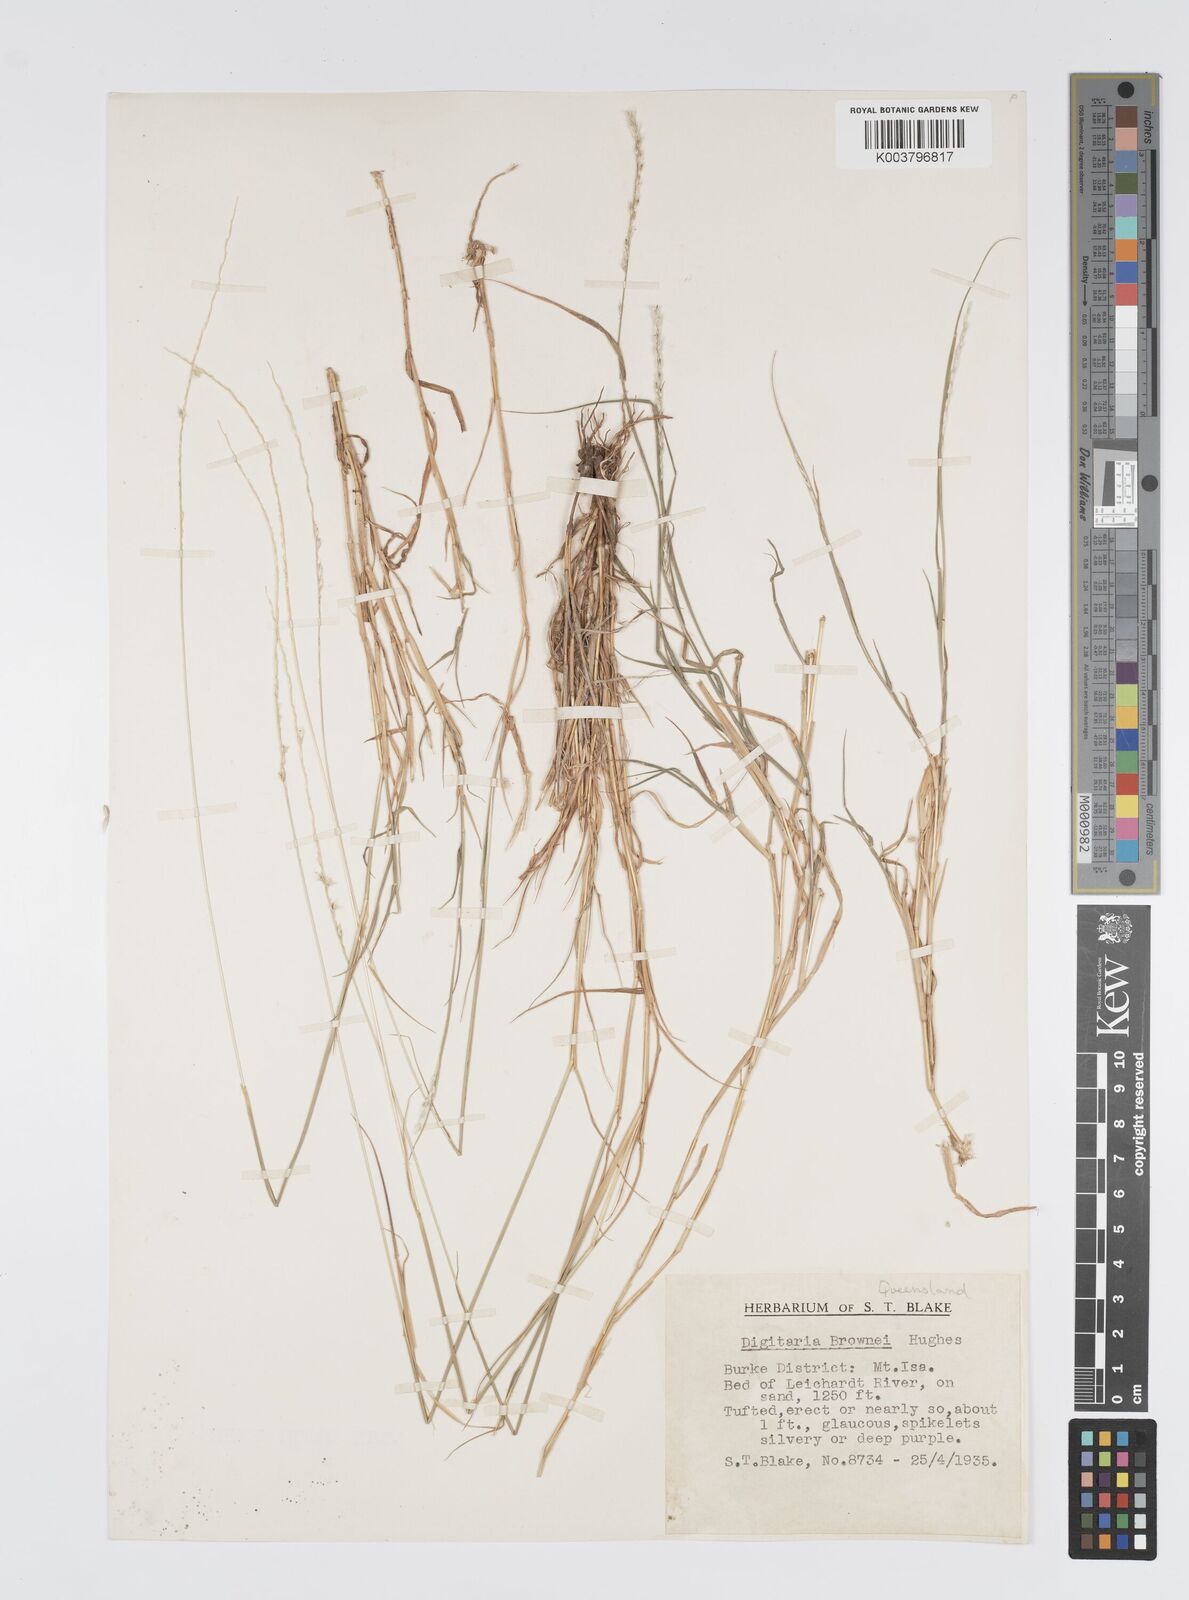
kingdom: Plantae
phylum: Tracheophyta
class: Liliopsida
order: Poales
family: Poaceae
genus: Digitaria
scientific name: Digitaria brownii
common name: Cotton grass
